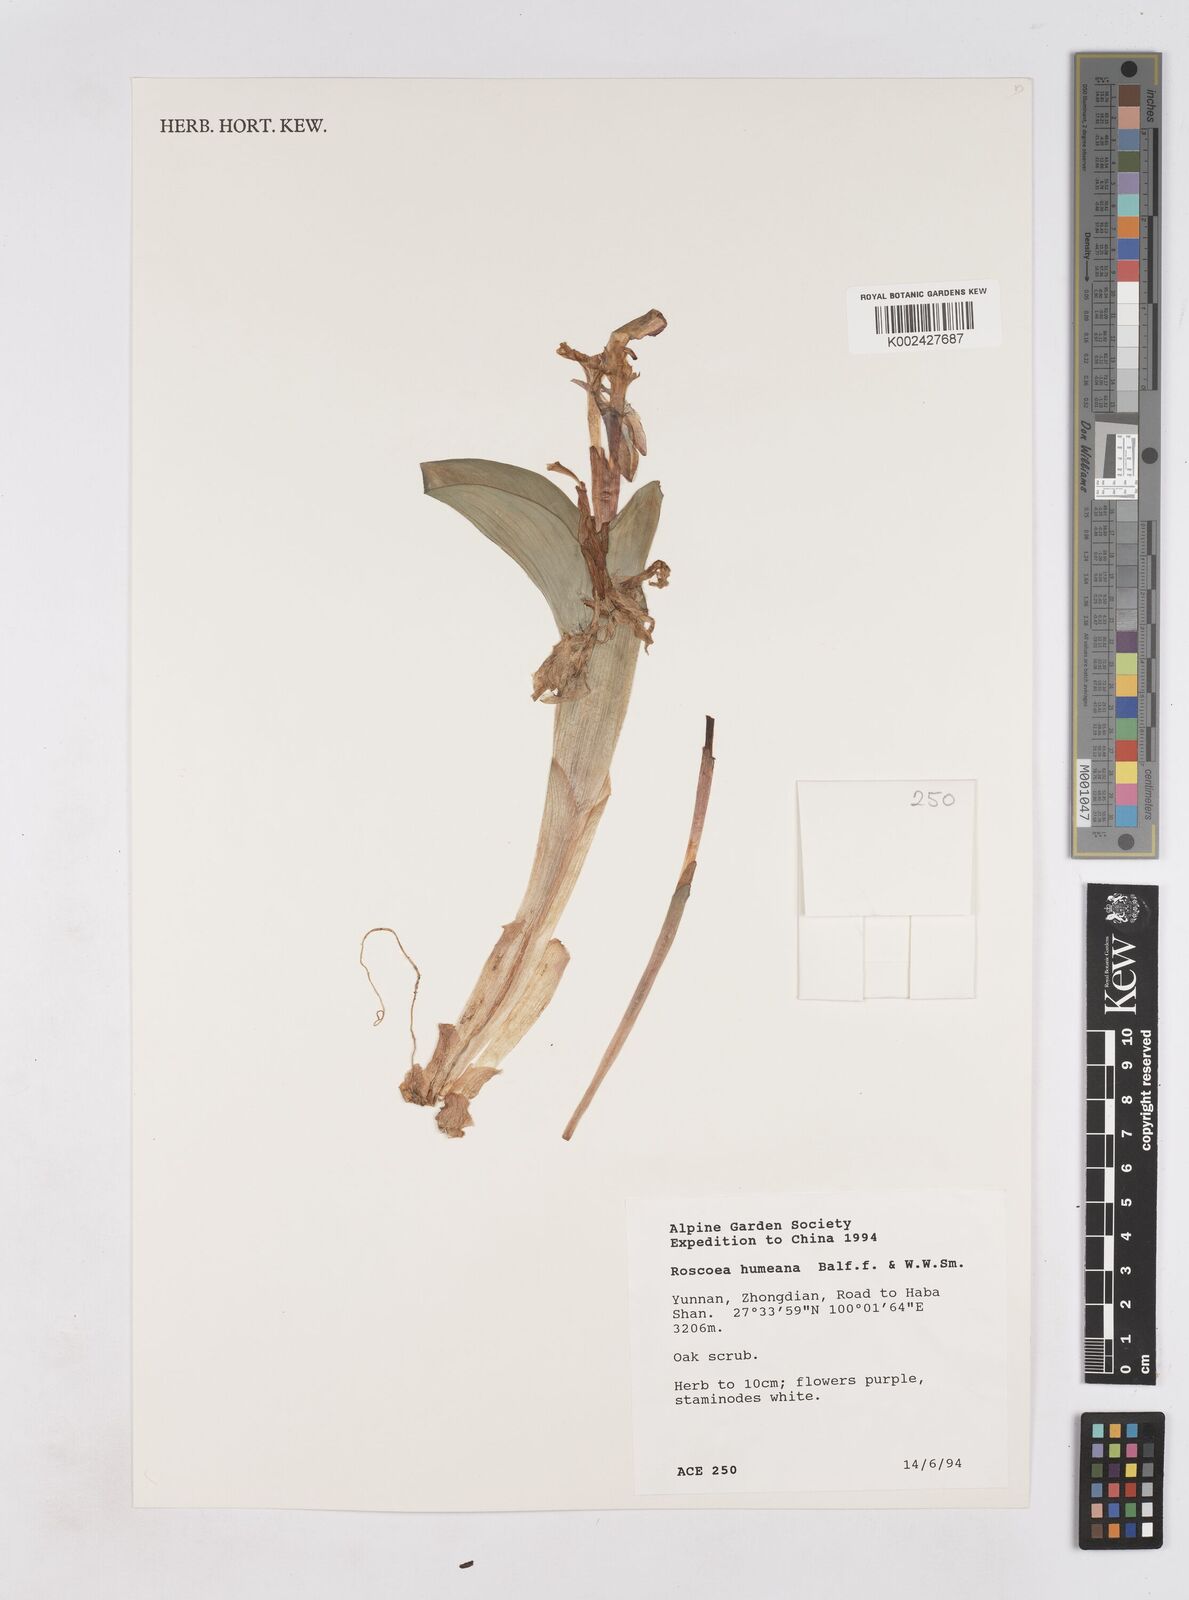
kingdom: Plantae
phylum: Tracheophyta
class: Liliopsida
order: Zingiberales
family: Zingiberaceae
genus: Roscoea
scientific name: Roscoea humeana
